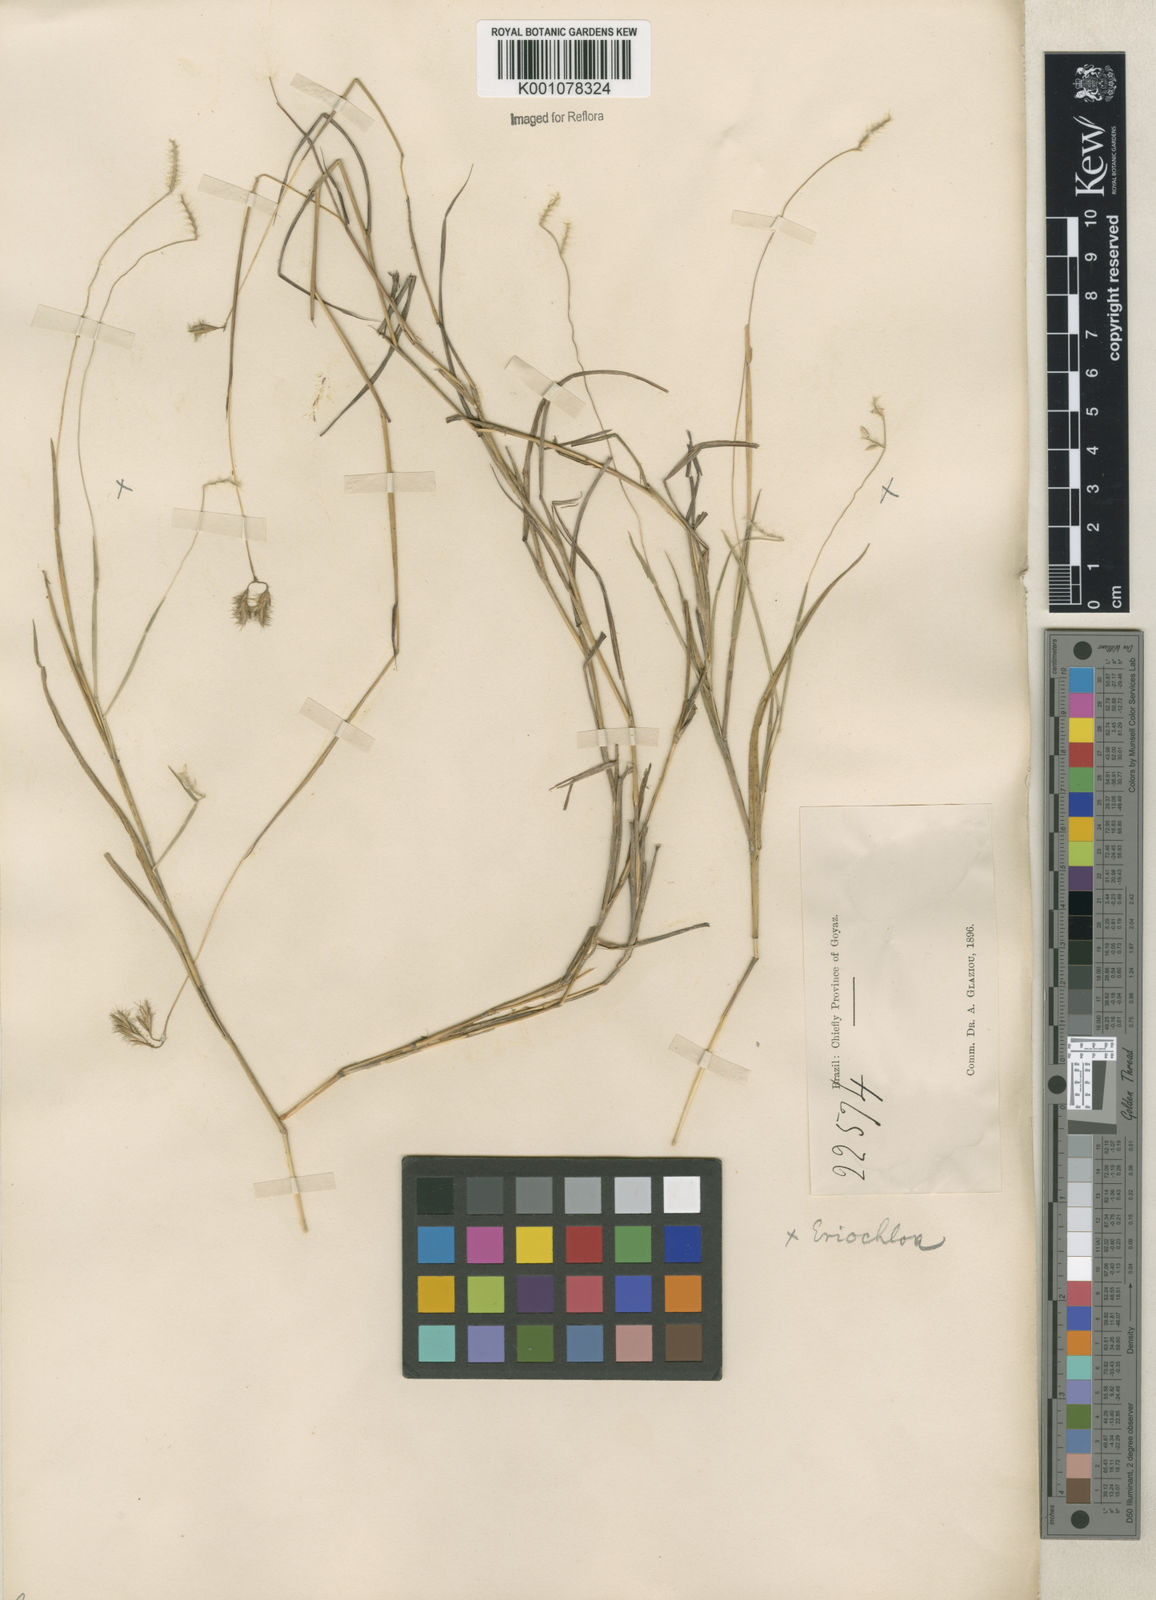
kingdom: Plantae
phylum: Tracheophyta
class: Liliopsida
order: Poales
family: Poaceae
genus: Eriochloa
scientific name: Eriochloa distachya
